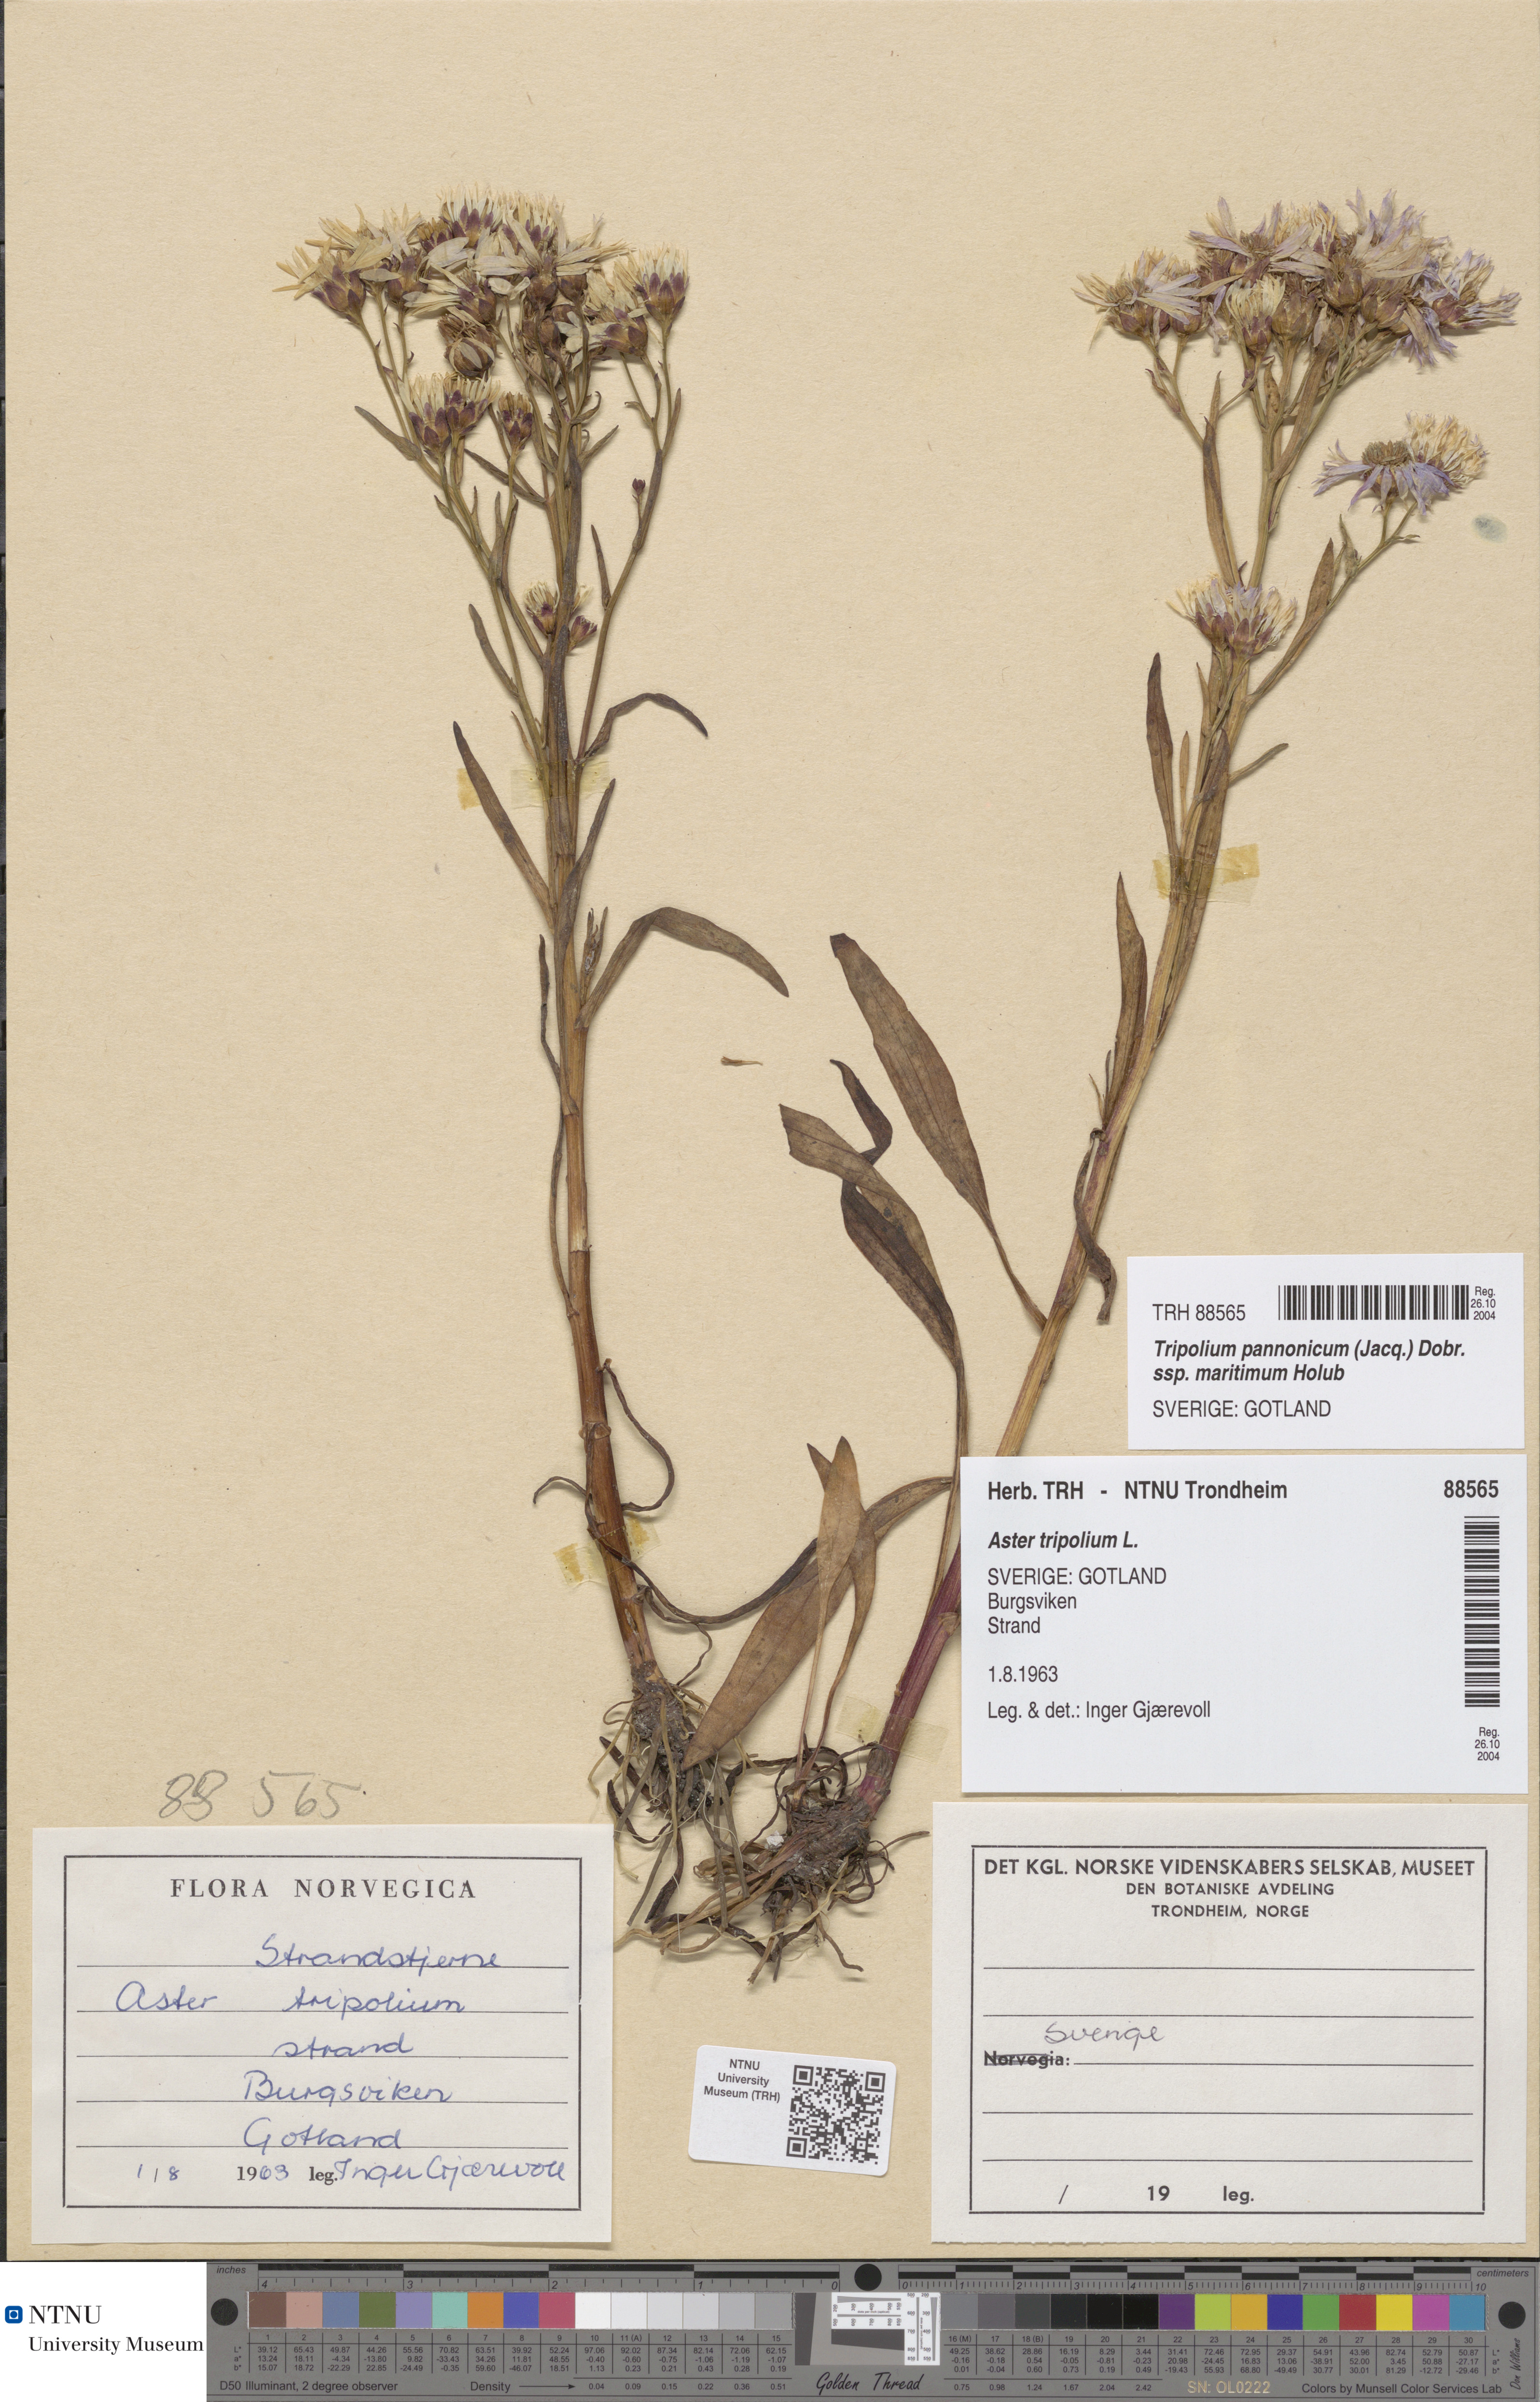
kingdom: Plantae
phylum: Tracheophyta
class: Magnoliopsida
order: Asterales
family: Asteraceae
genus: Tripolium
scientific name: Tripolium pannonicum
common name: Sea aster
